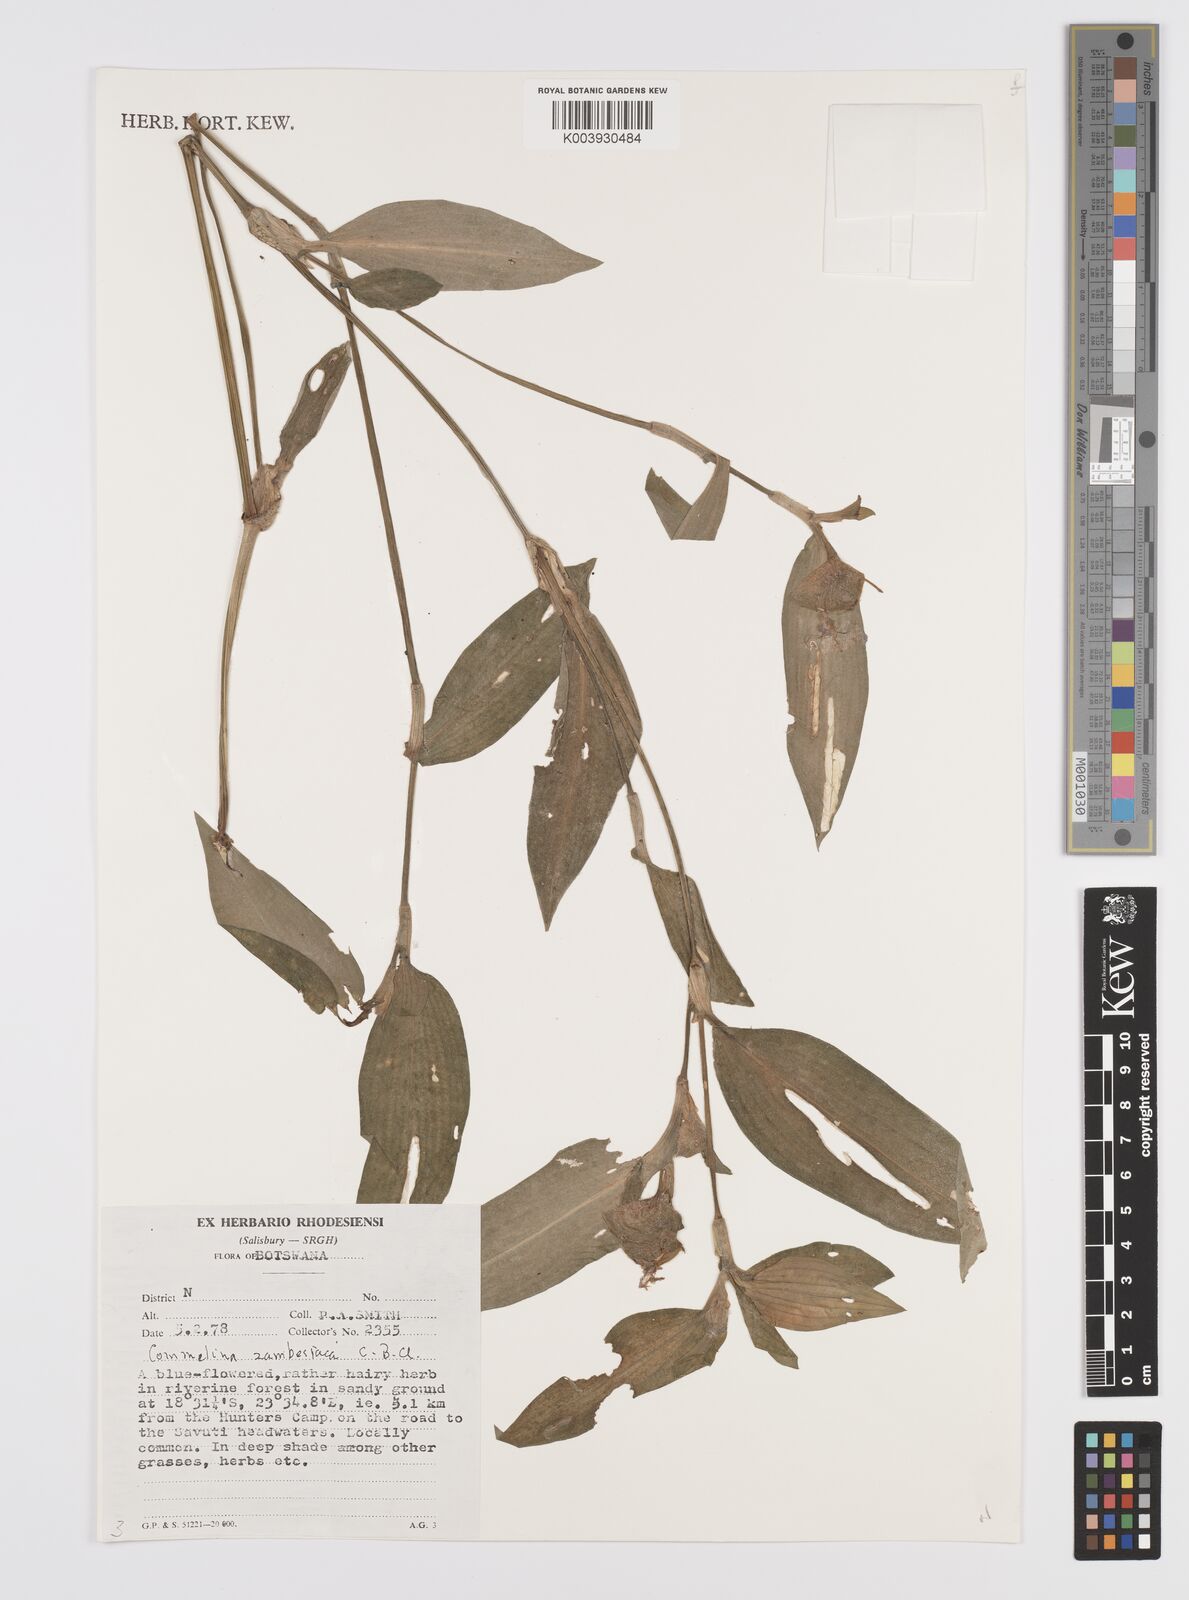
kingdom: Plantae
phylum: Tracheophyta
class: Liliopsida
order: Commelinales
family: Commelinaceae
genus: Commelina
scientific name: Commelina zambesica
